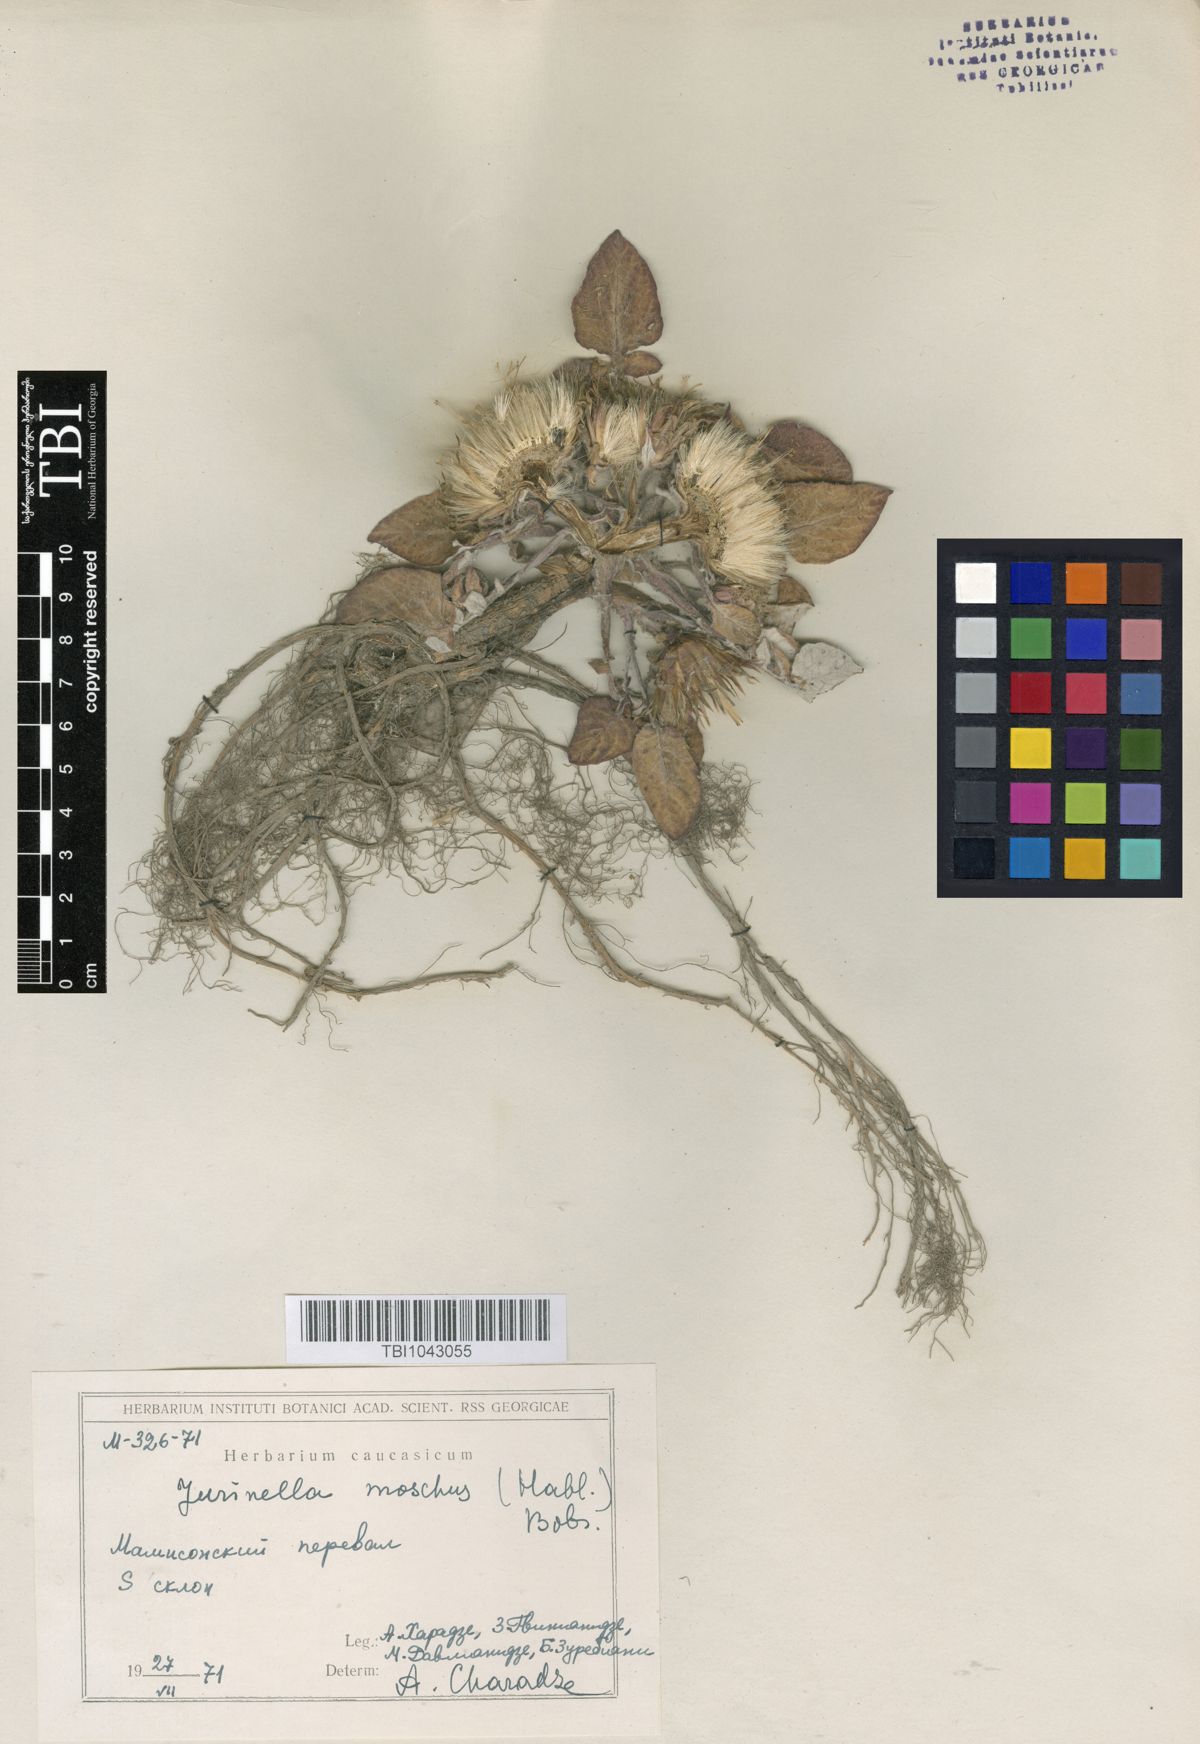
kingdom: Plantae
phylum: Tracheophyta
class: Magnoliopsida
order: Asterales
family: Asteraceae
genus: Jurinea
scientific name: Jurinea moschus
